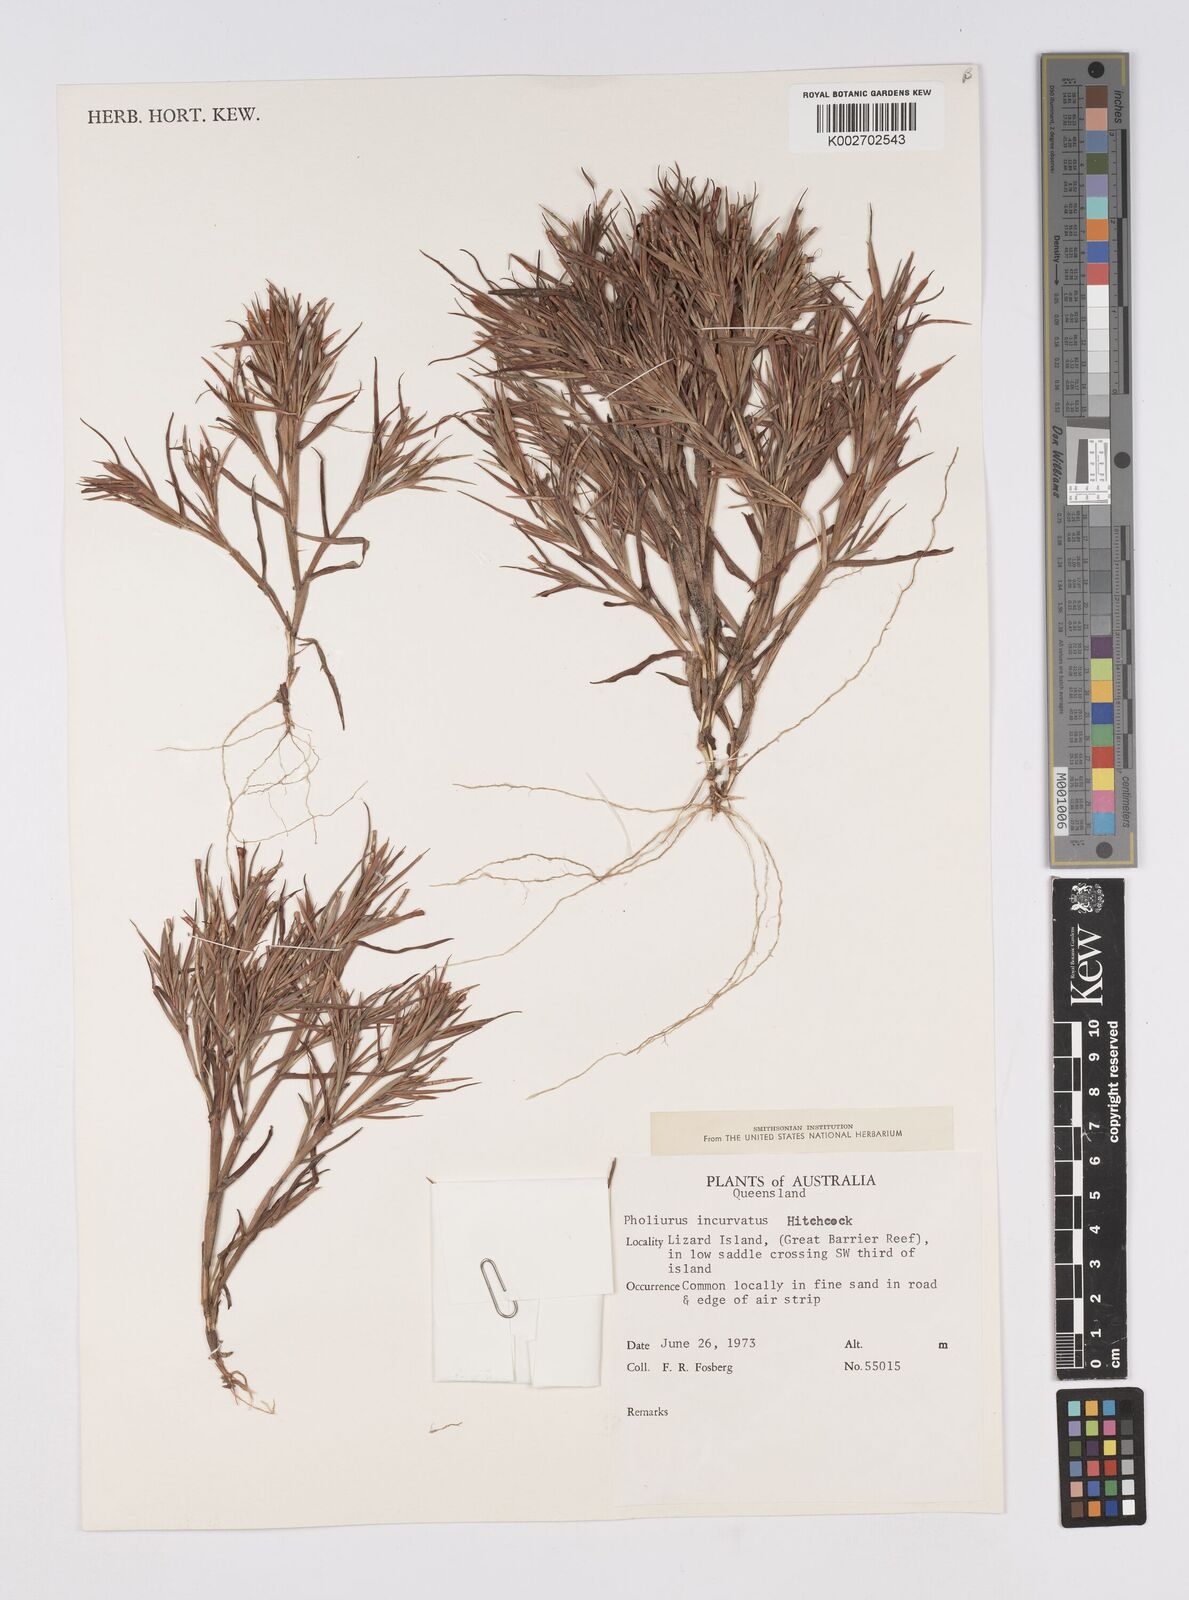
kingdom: Plantae
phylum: Tracheophyta
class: Liliopsida
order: Poales
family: Poaceae
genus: Thaumastochloa
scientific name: Thaumastochloa pubescens
